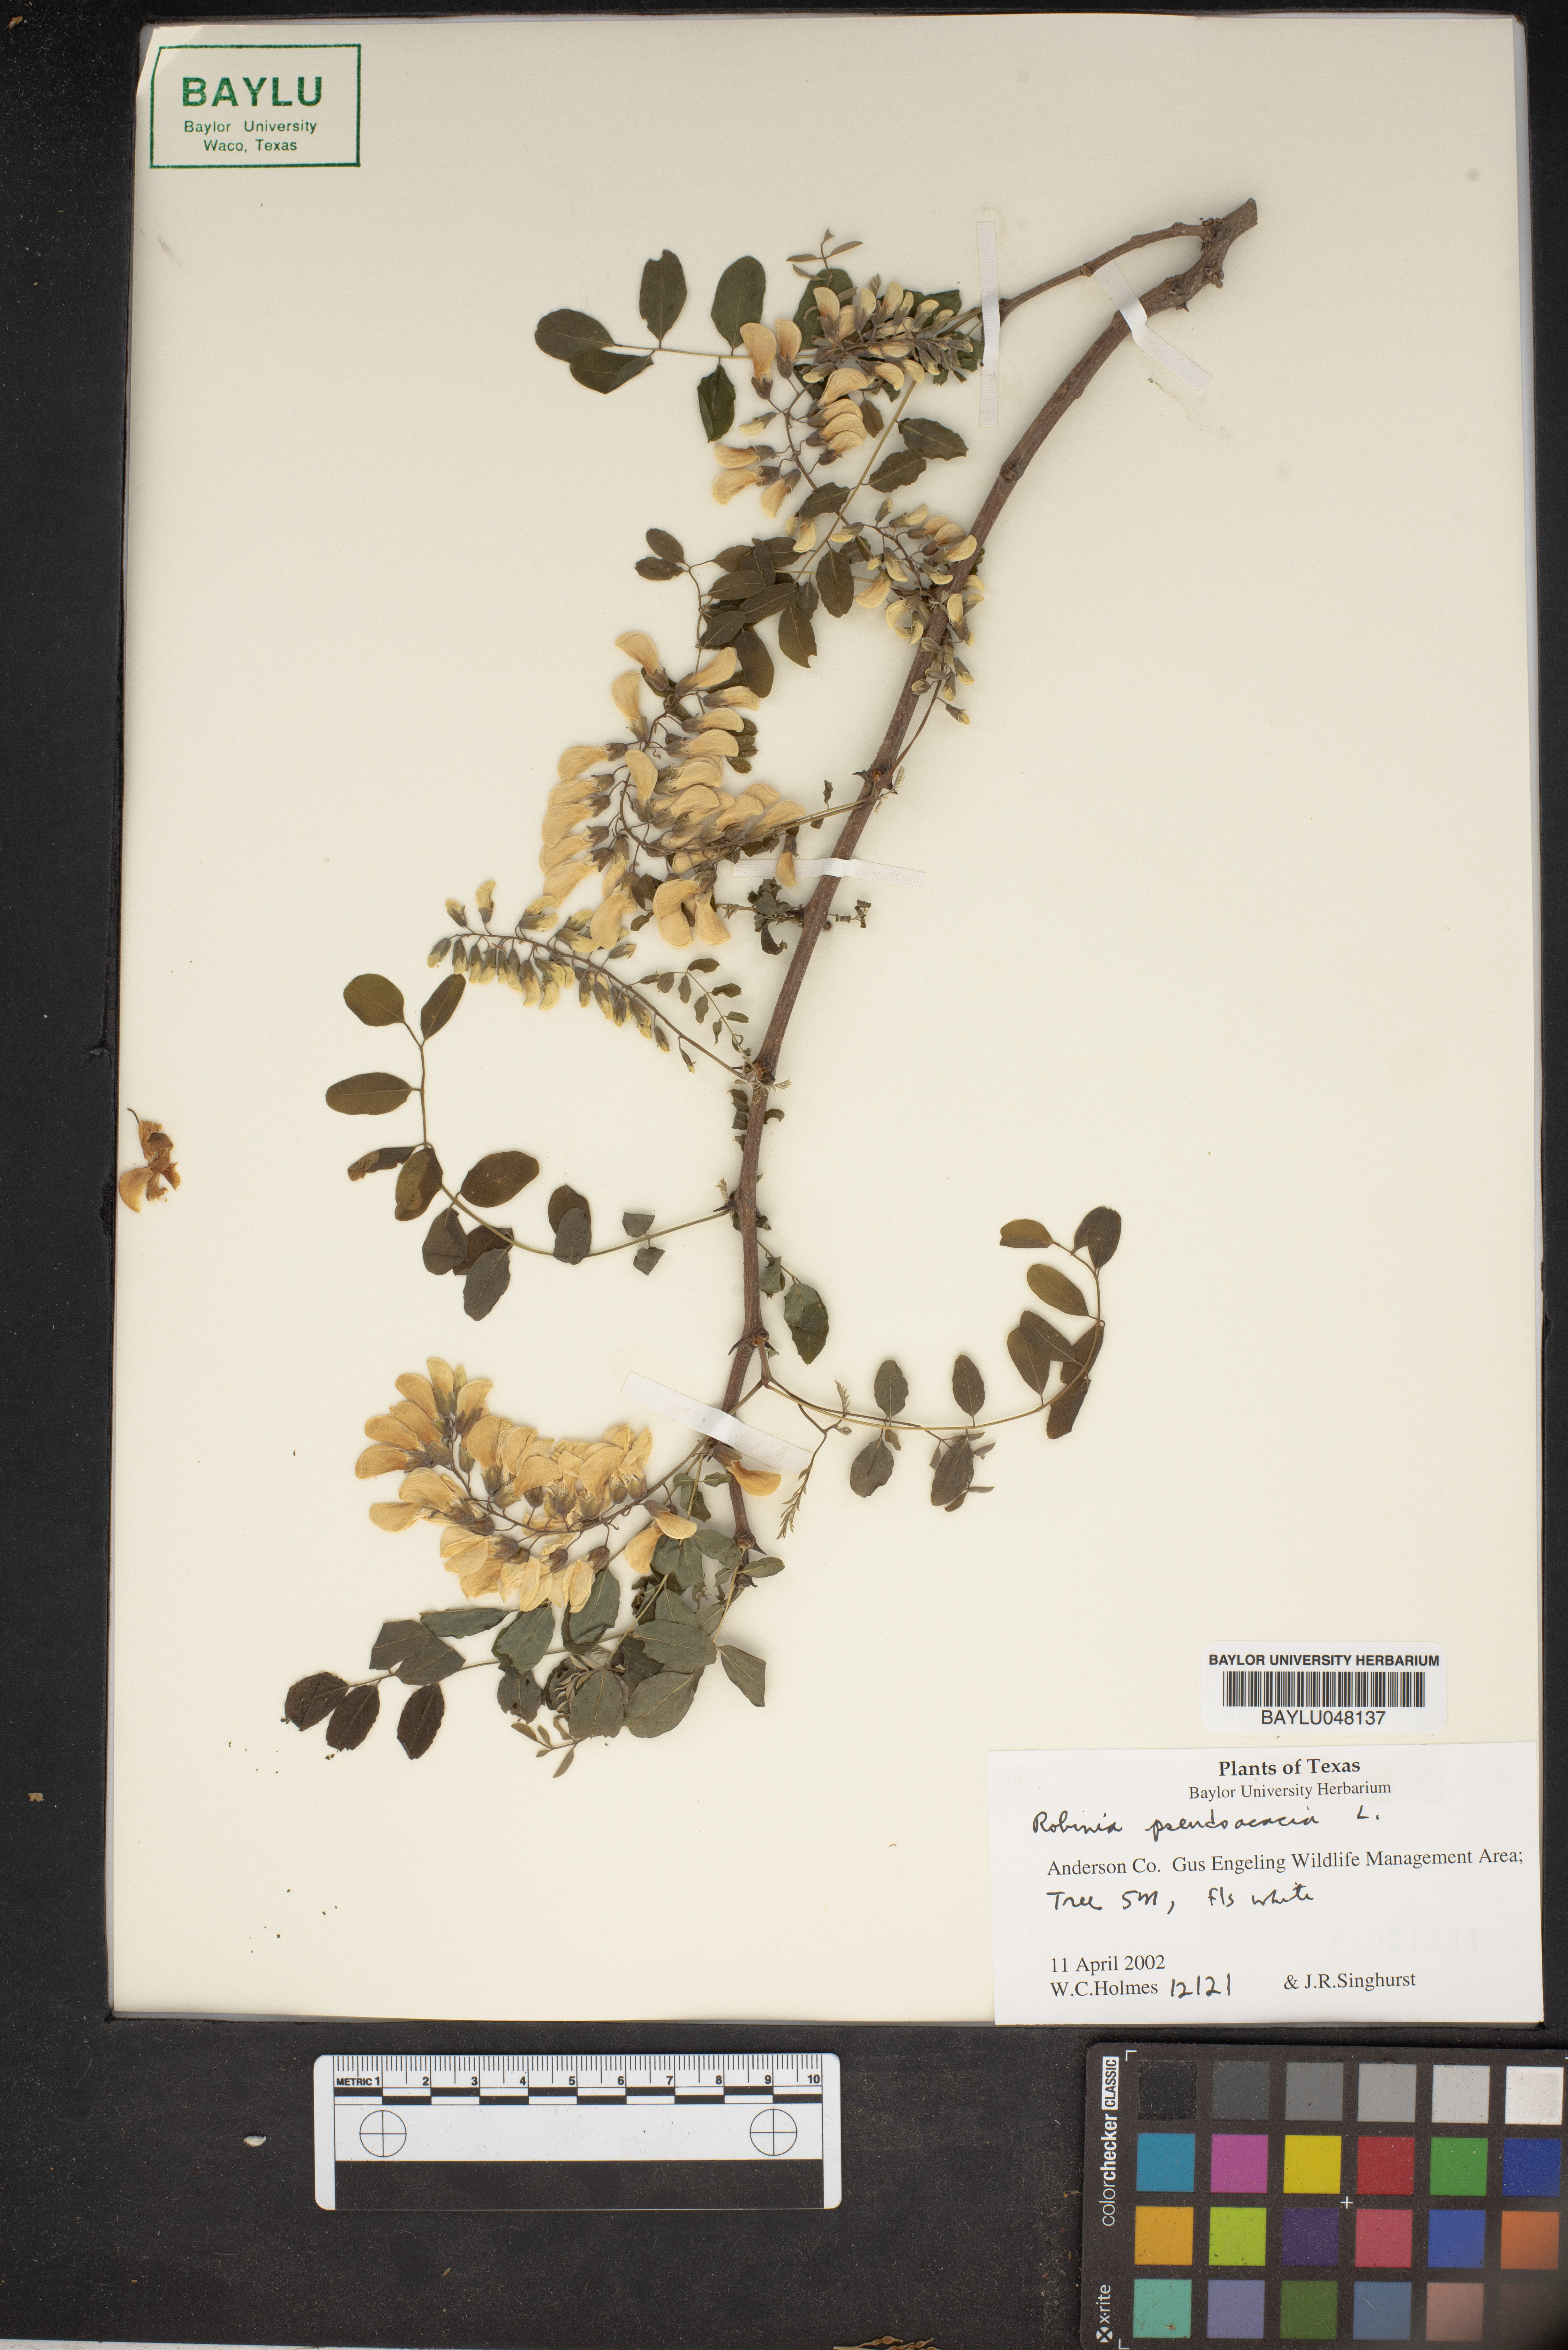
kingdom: Plantae
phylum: Tracheophyta
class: Magnoliopsida
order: Fabales
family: Fabaceae
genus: Robinia
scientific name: Robinia pseudoacacia
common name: Black locust
